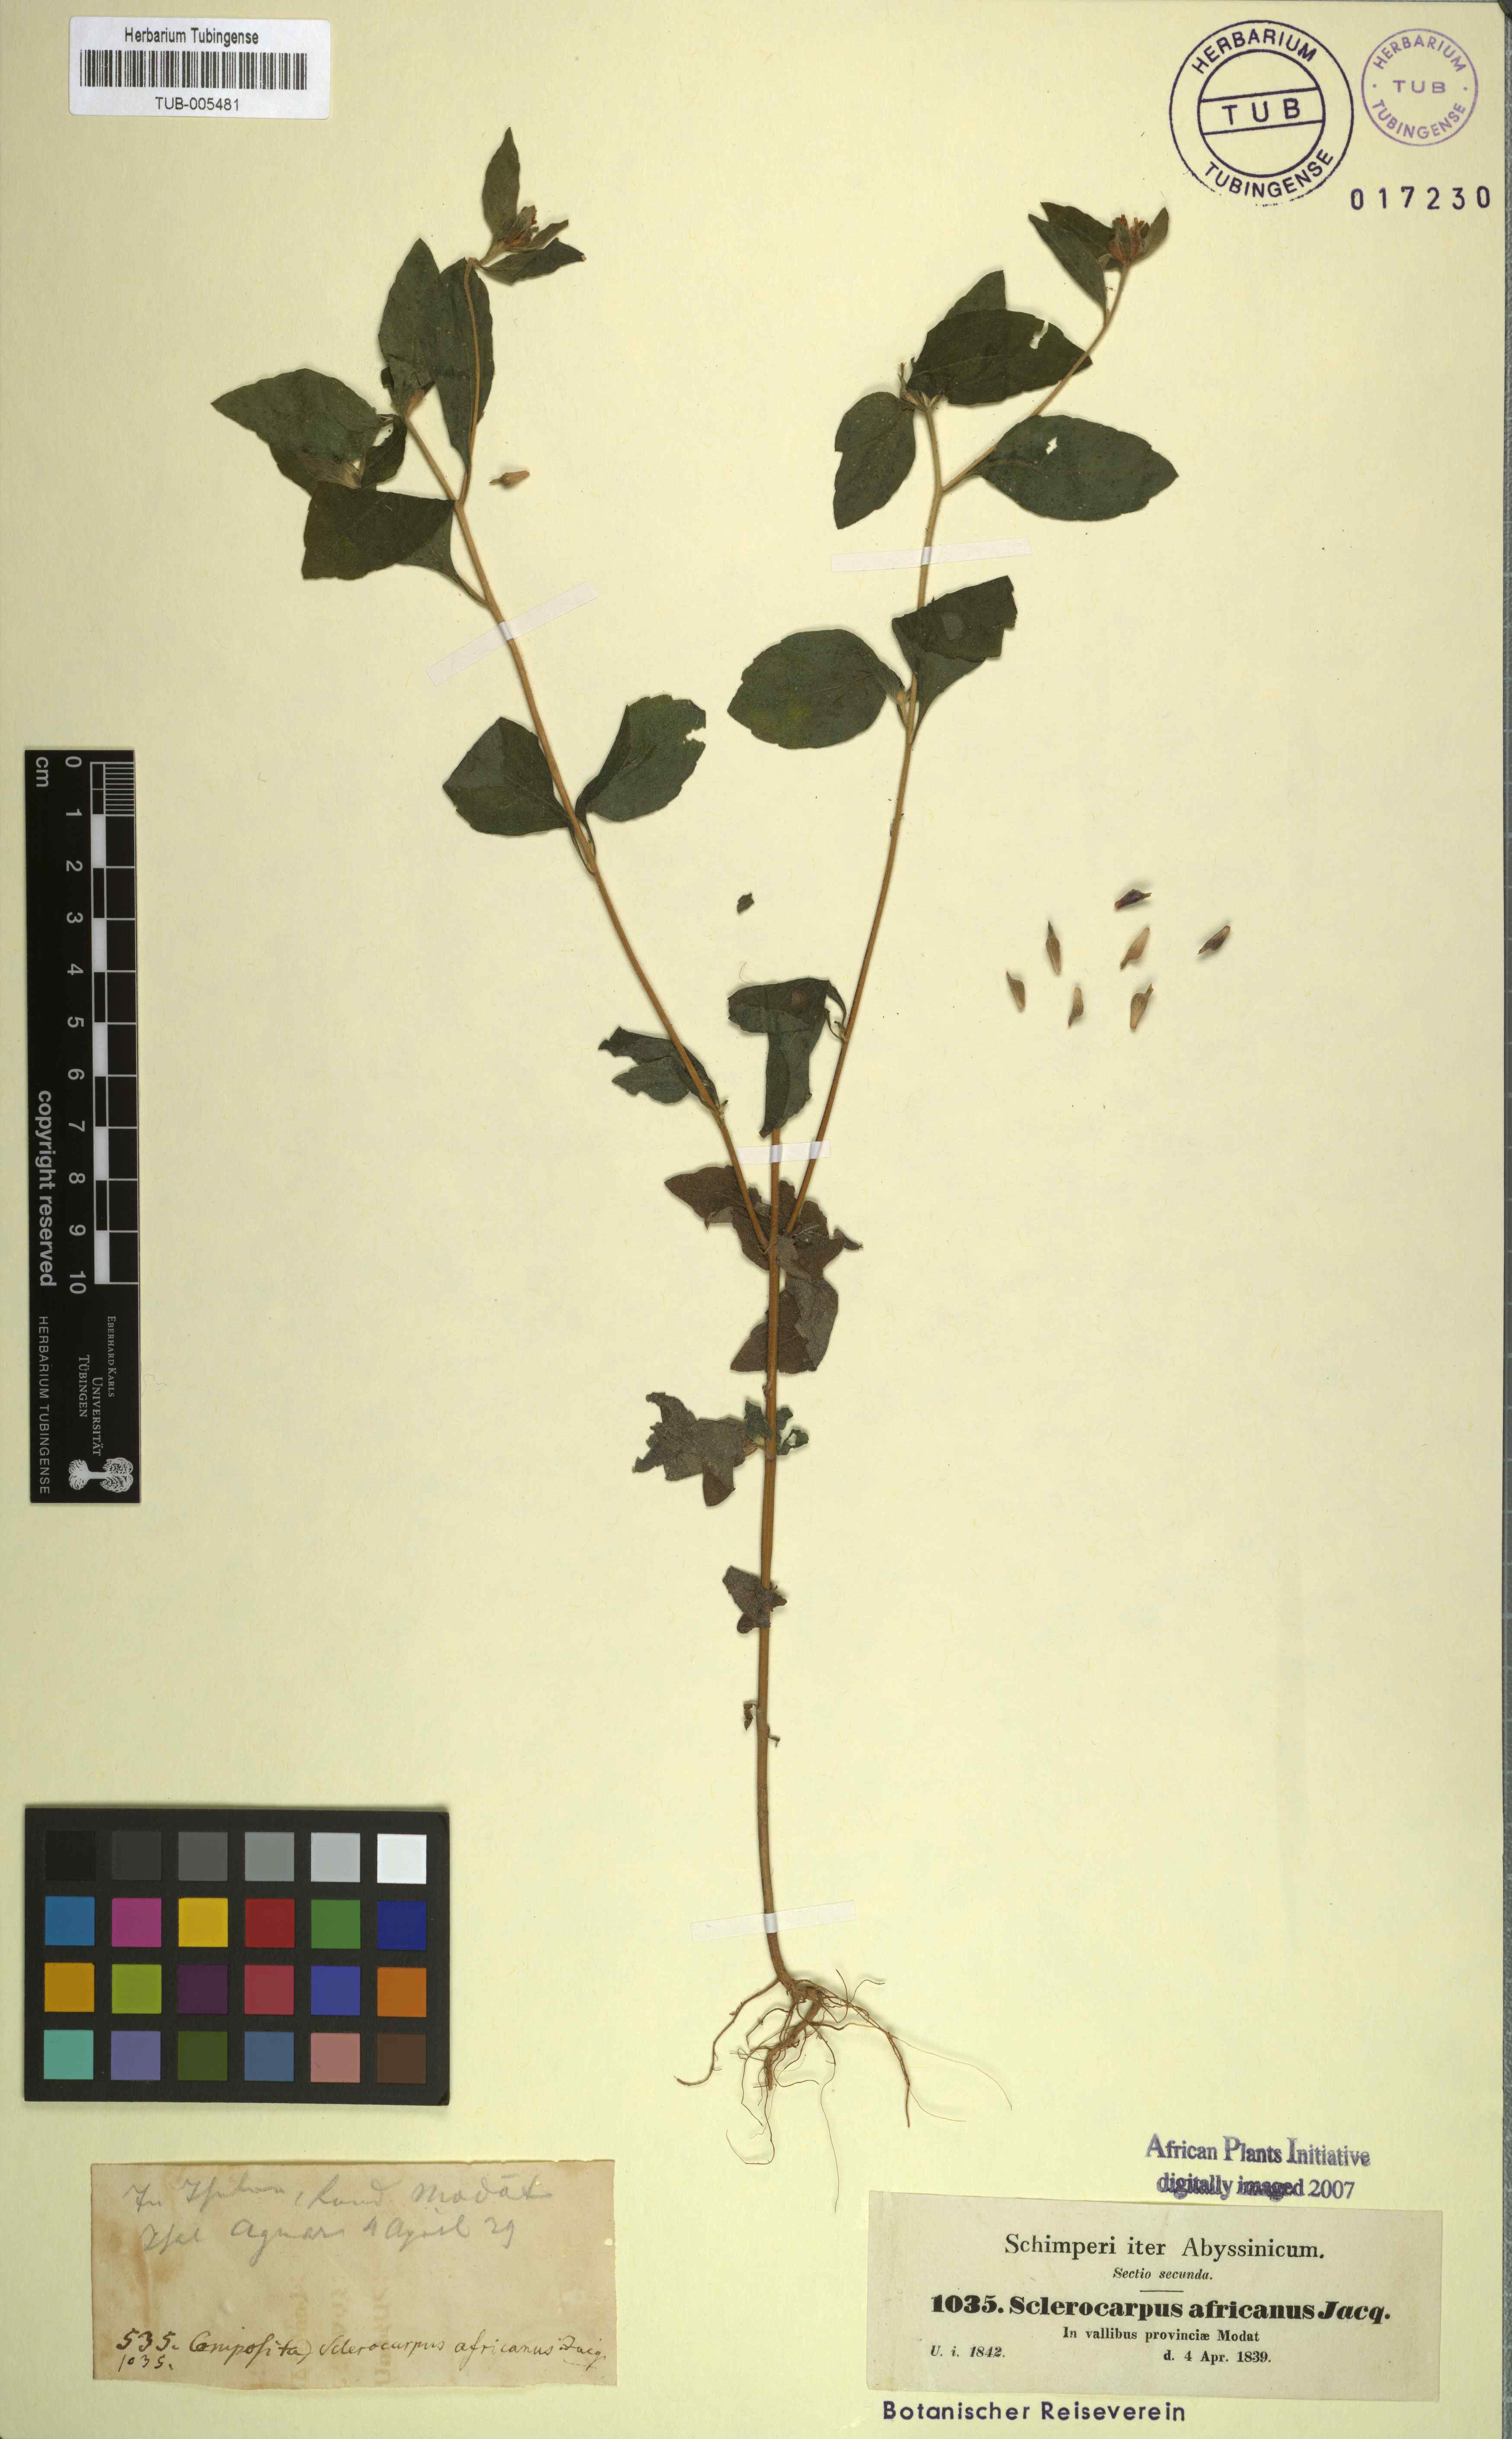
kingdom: Plantae
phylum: Tracheophyta
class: Magnoliopsida
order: Asterales
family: Asteraceae
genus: Sclerocarpus
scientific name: Sclerocarpus africanus
